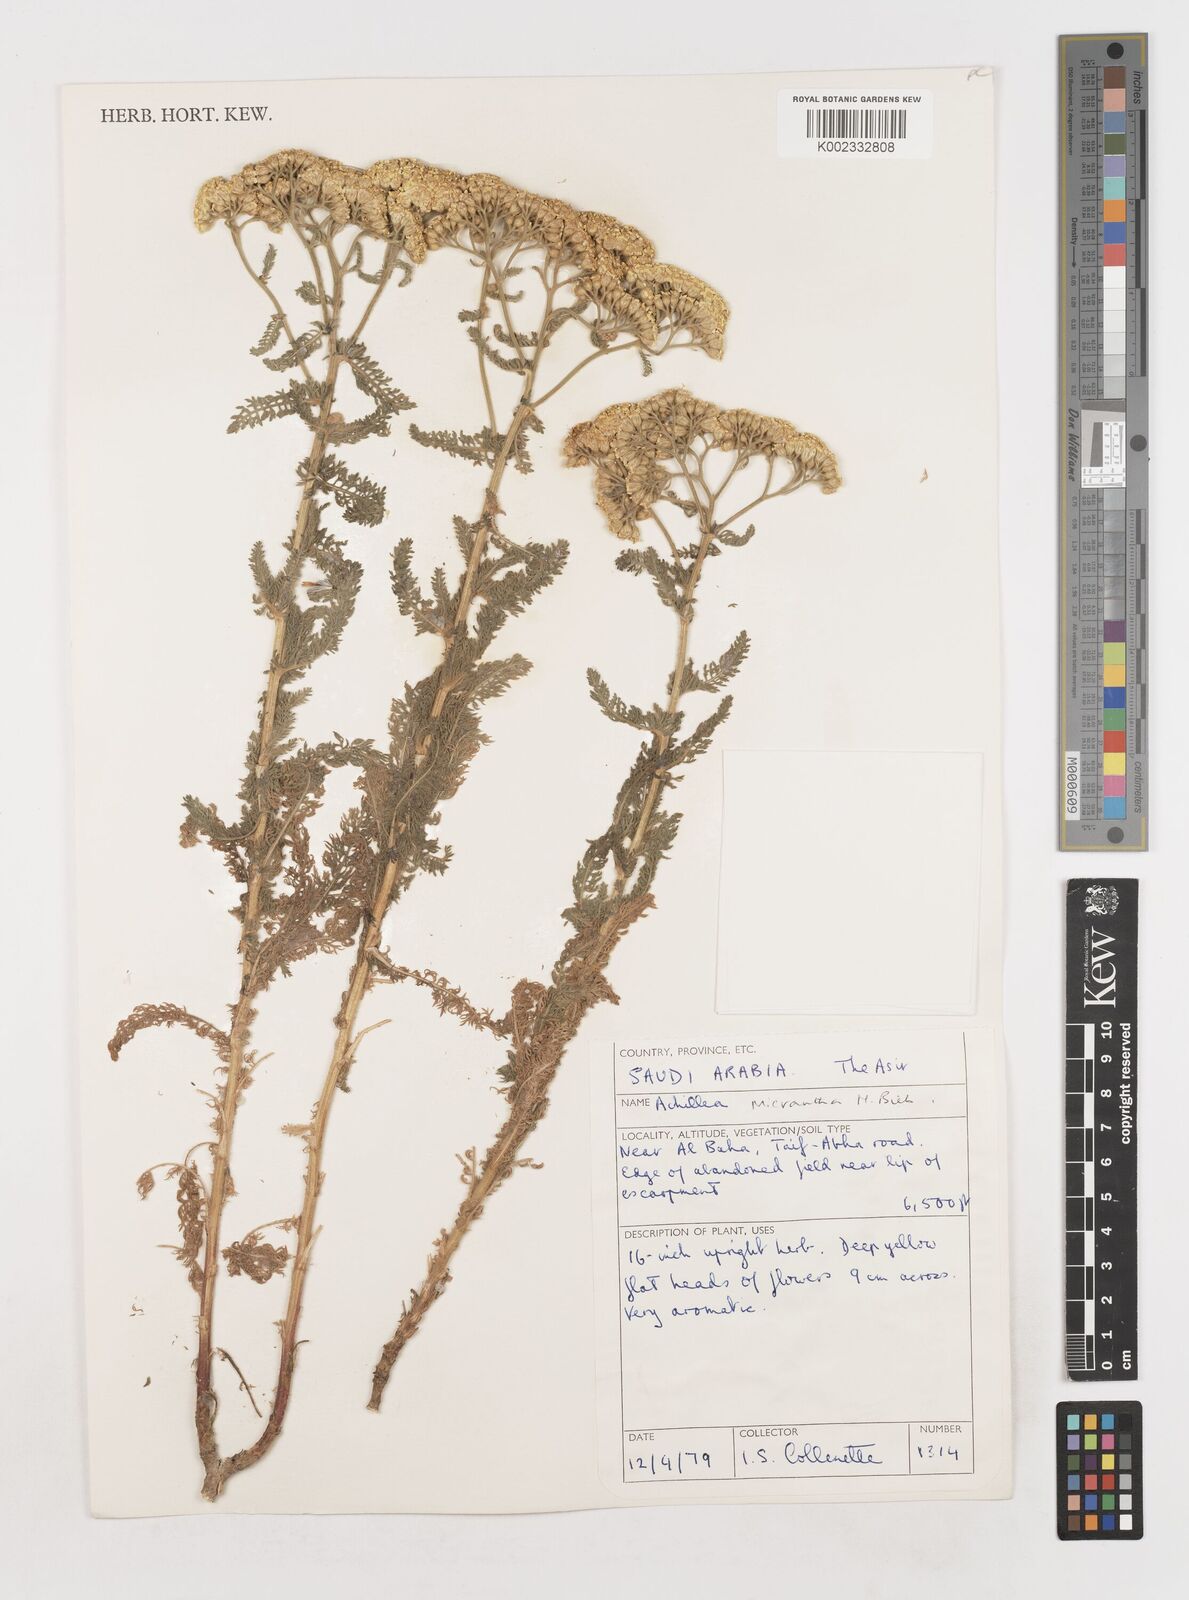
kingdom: Plantae
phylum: Tracheophyta
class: Magnoliopsida
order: Asterales
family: Asteraceae
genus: Achillea
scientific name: Achillea arabica
